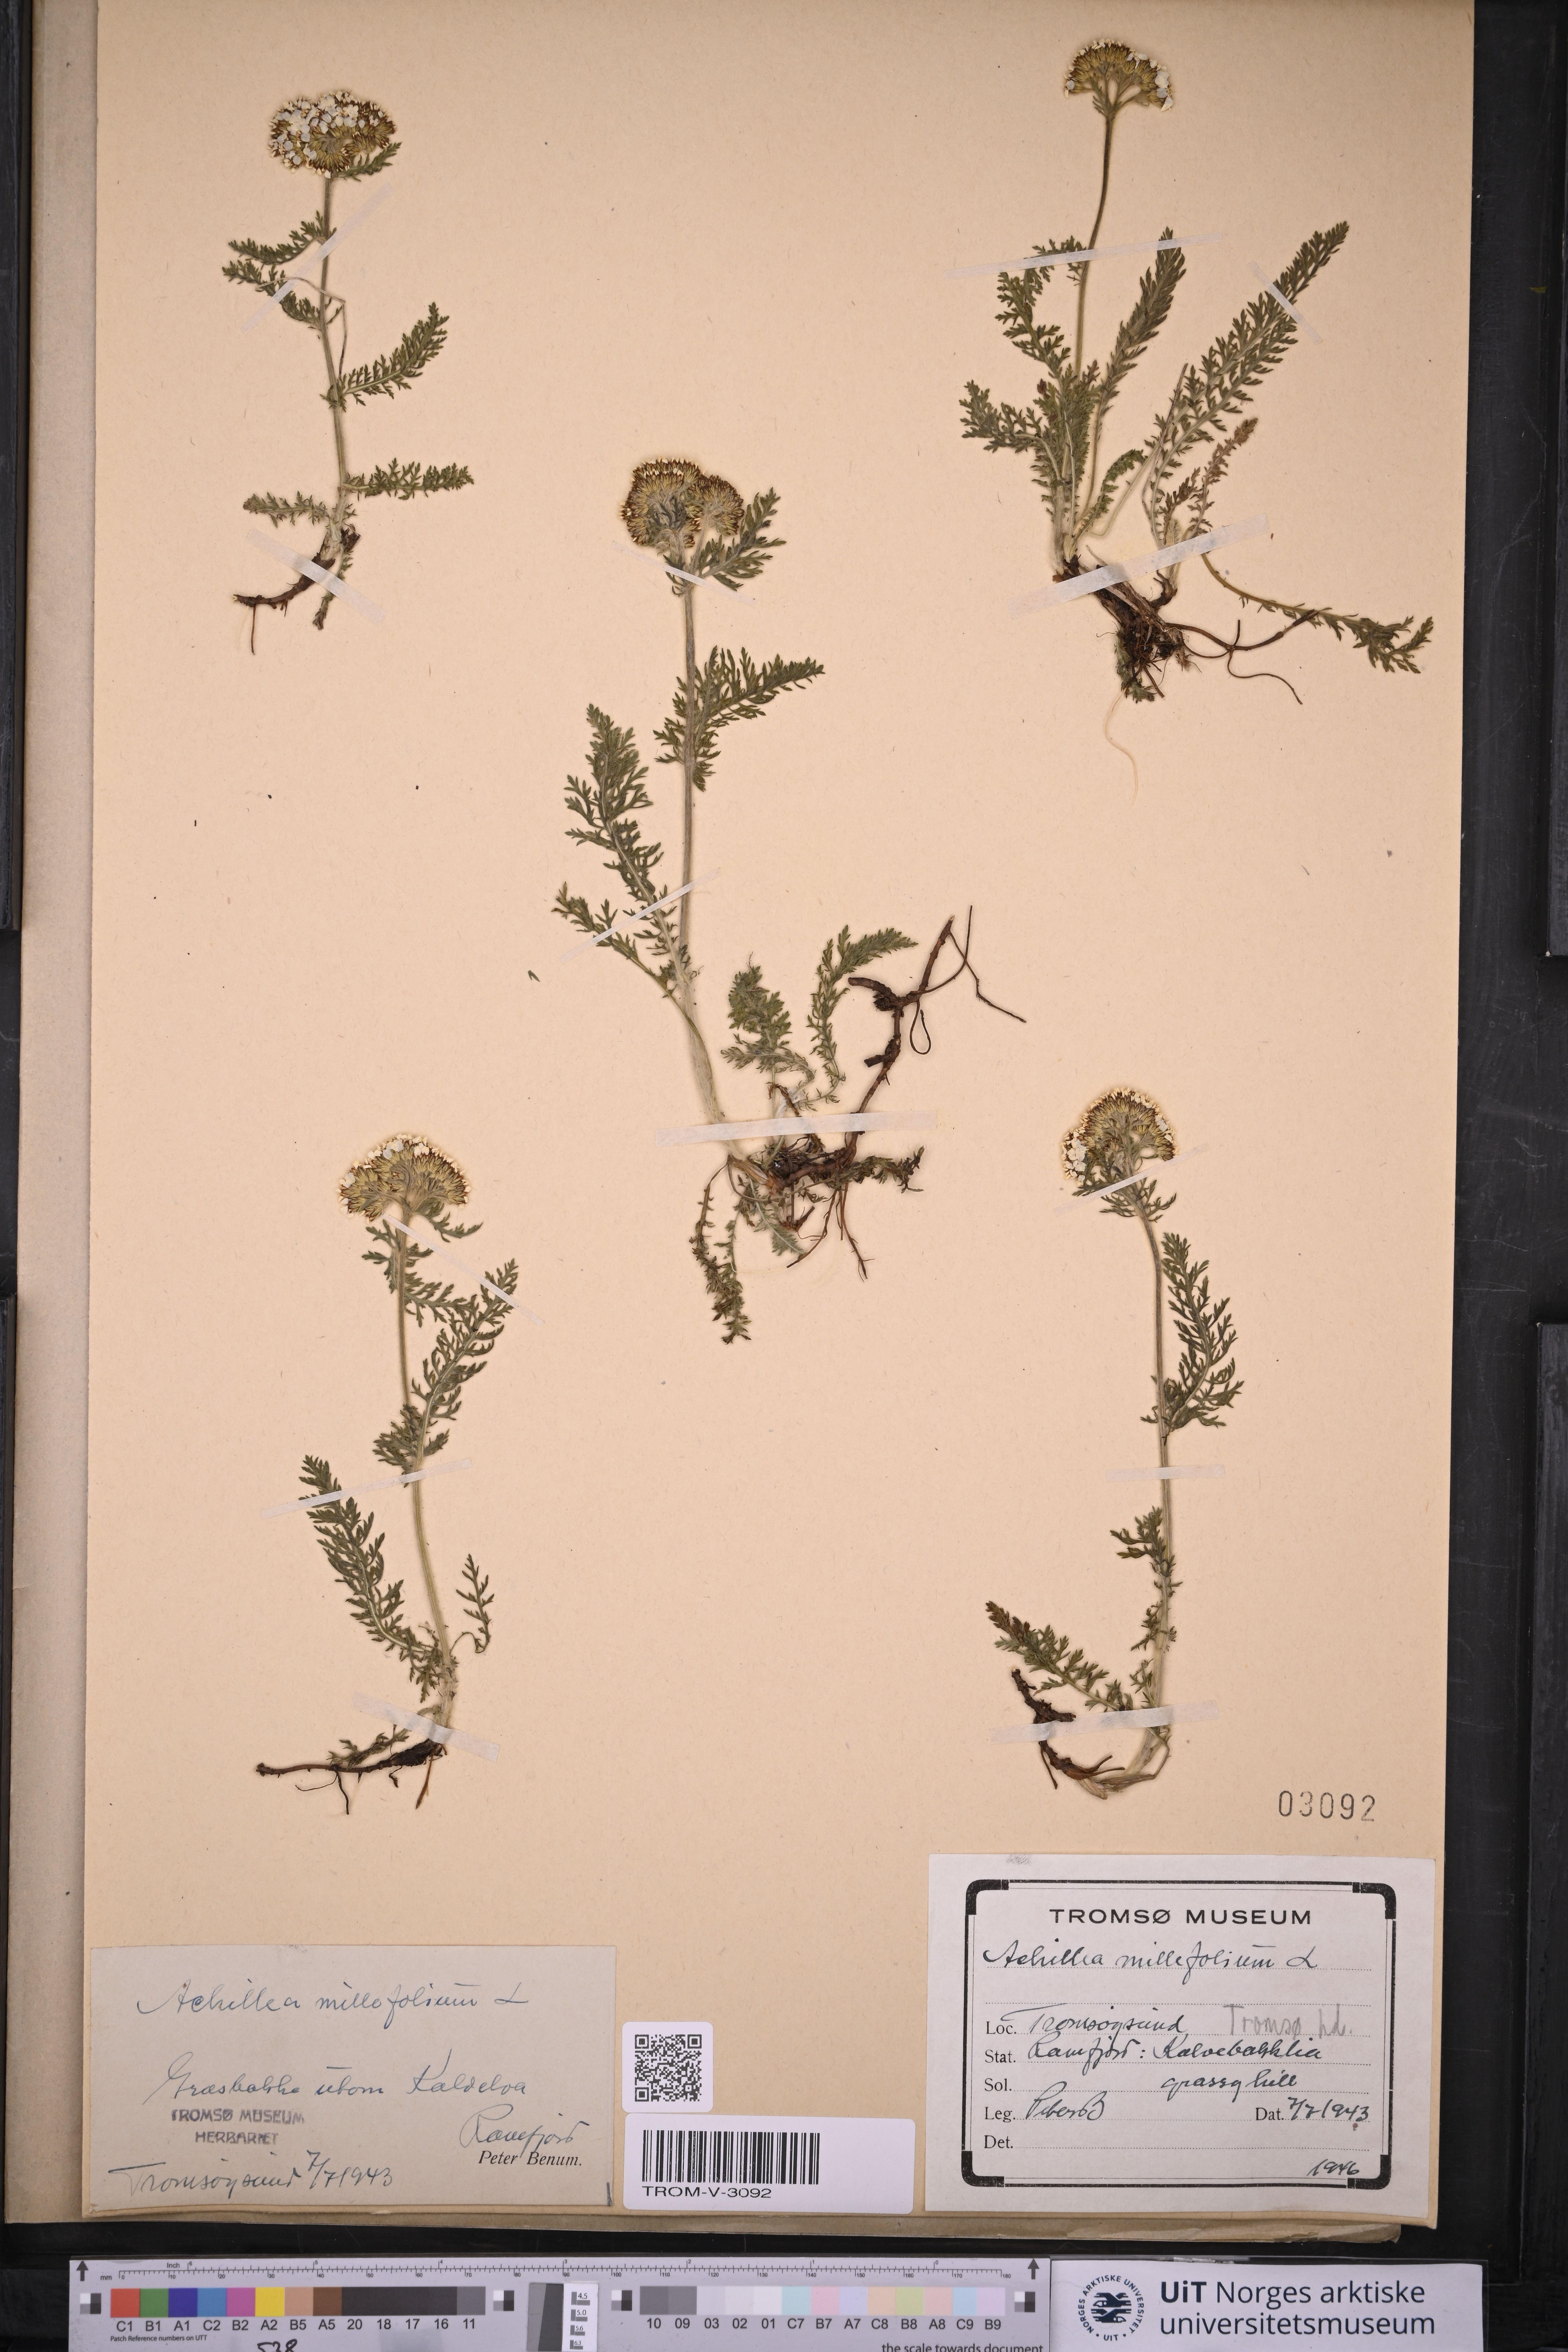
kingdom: Plantae
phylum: Tracheophyta
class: Magnoliopsida
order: Asterales
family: Asteraceae
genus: Achillea
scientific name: Achillea millefolium
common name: Yarrow
